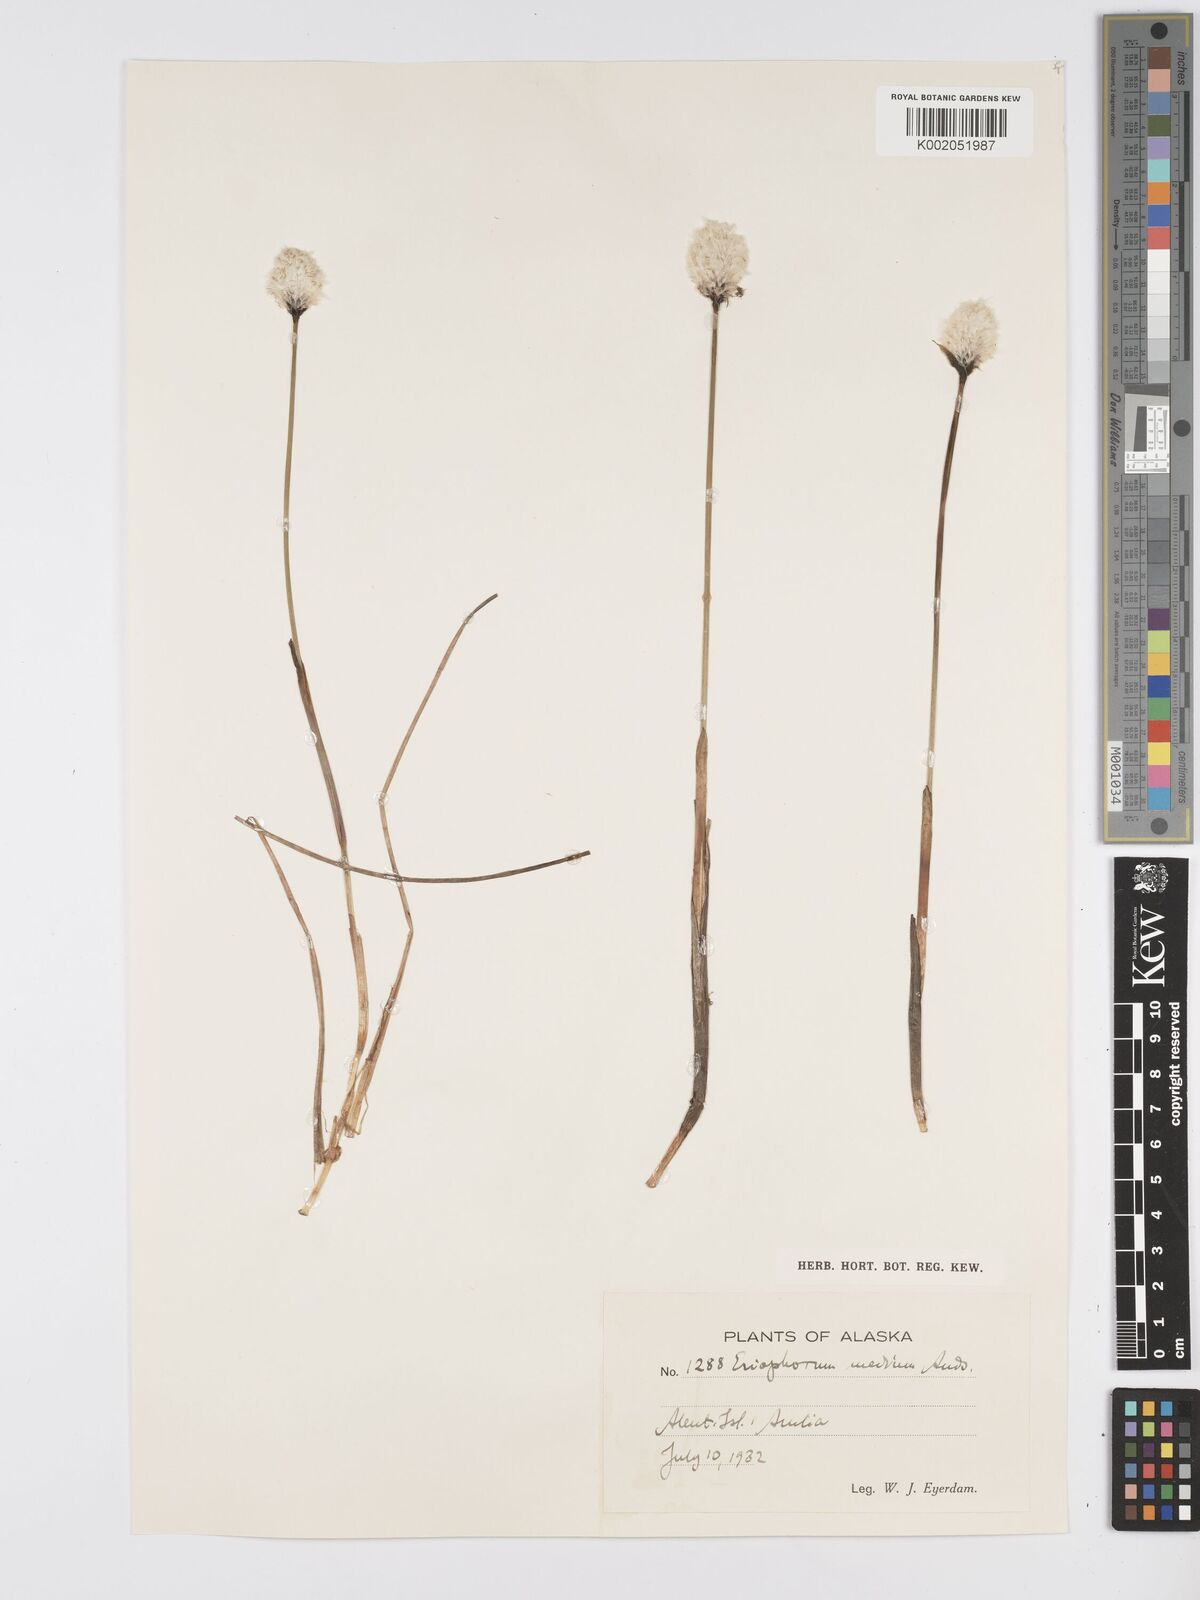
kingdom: Plantae
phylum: Tracheophyta
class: Liliopsida
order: Poales
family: Cyperaceae
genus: Eriophorum
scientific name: Eriophorum callitrix
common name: Arctic cottongrass
